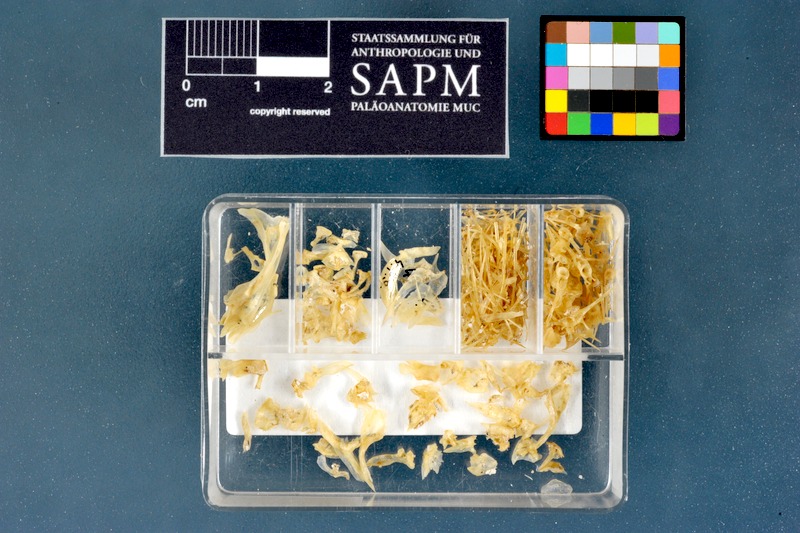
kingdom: Animalia
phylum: Chordata
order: Perciformes
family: Blenniidae
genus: Parablennius
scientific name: Parablennius sanguinolentus
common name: Black sea blenny
